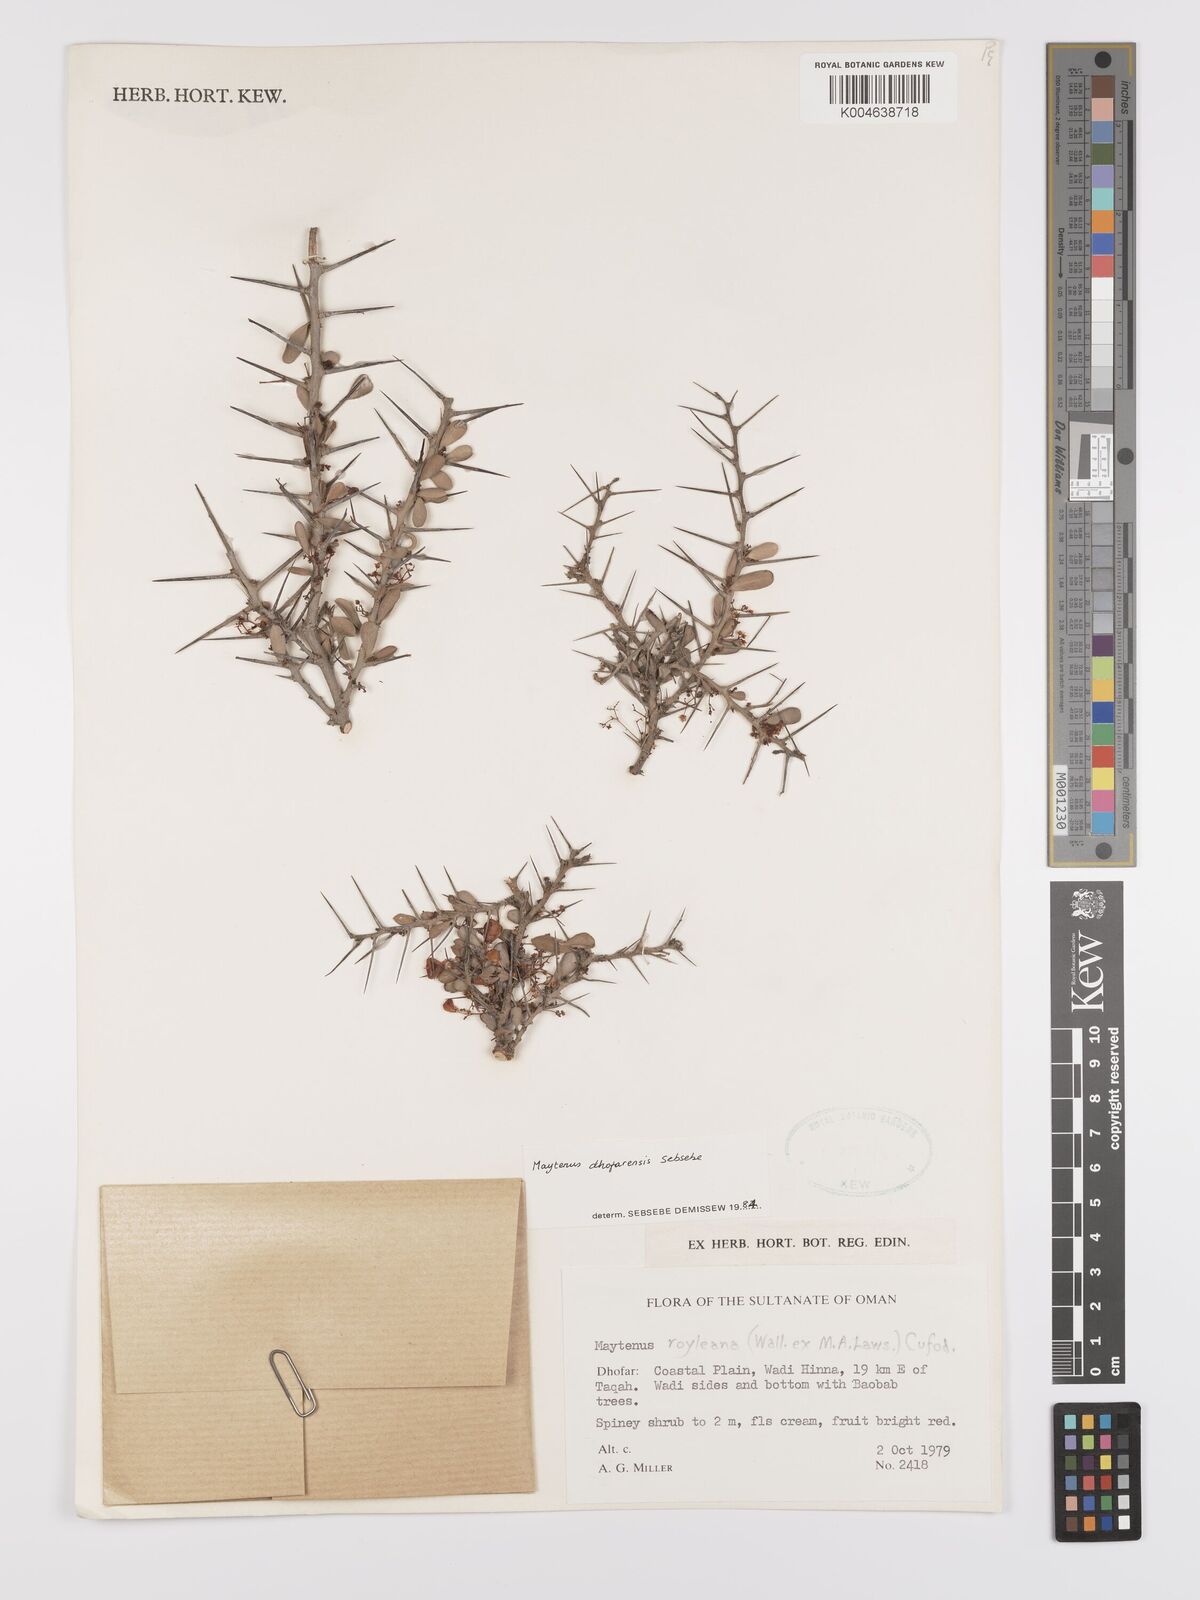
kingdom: Plantae
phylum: Tracheophyta
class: Magnoliopsida
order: Celastrales
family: Celastraceae
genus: Gymnosporia
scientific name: Gymnosporia dhofarensis
